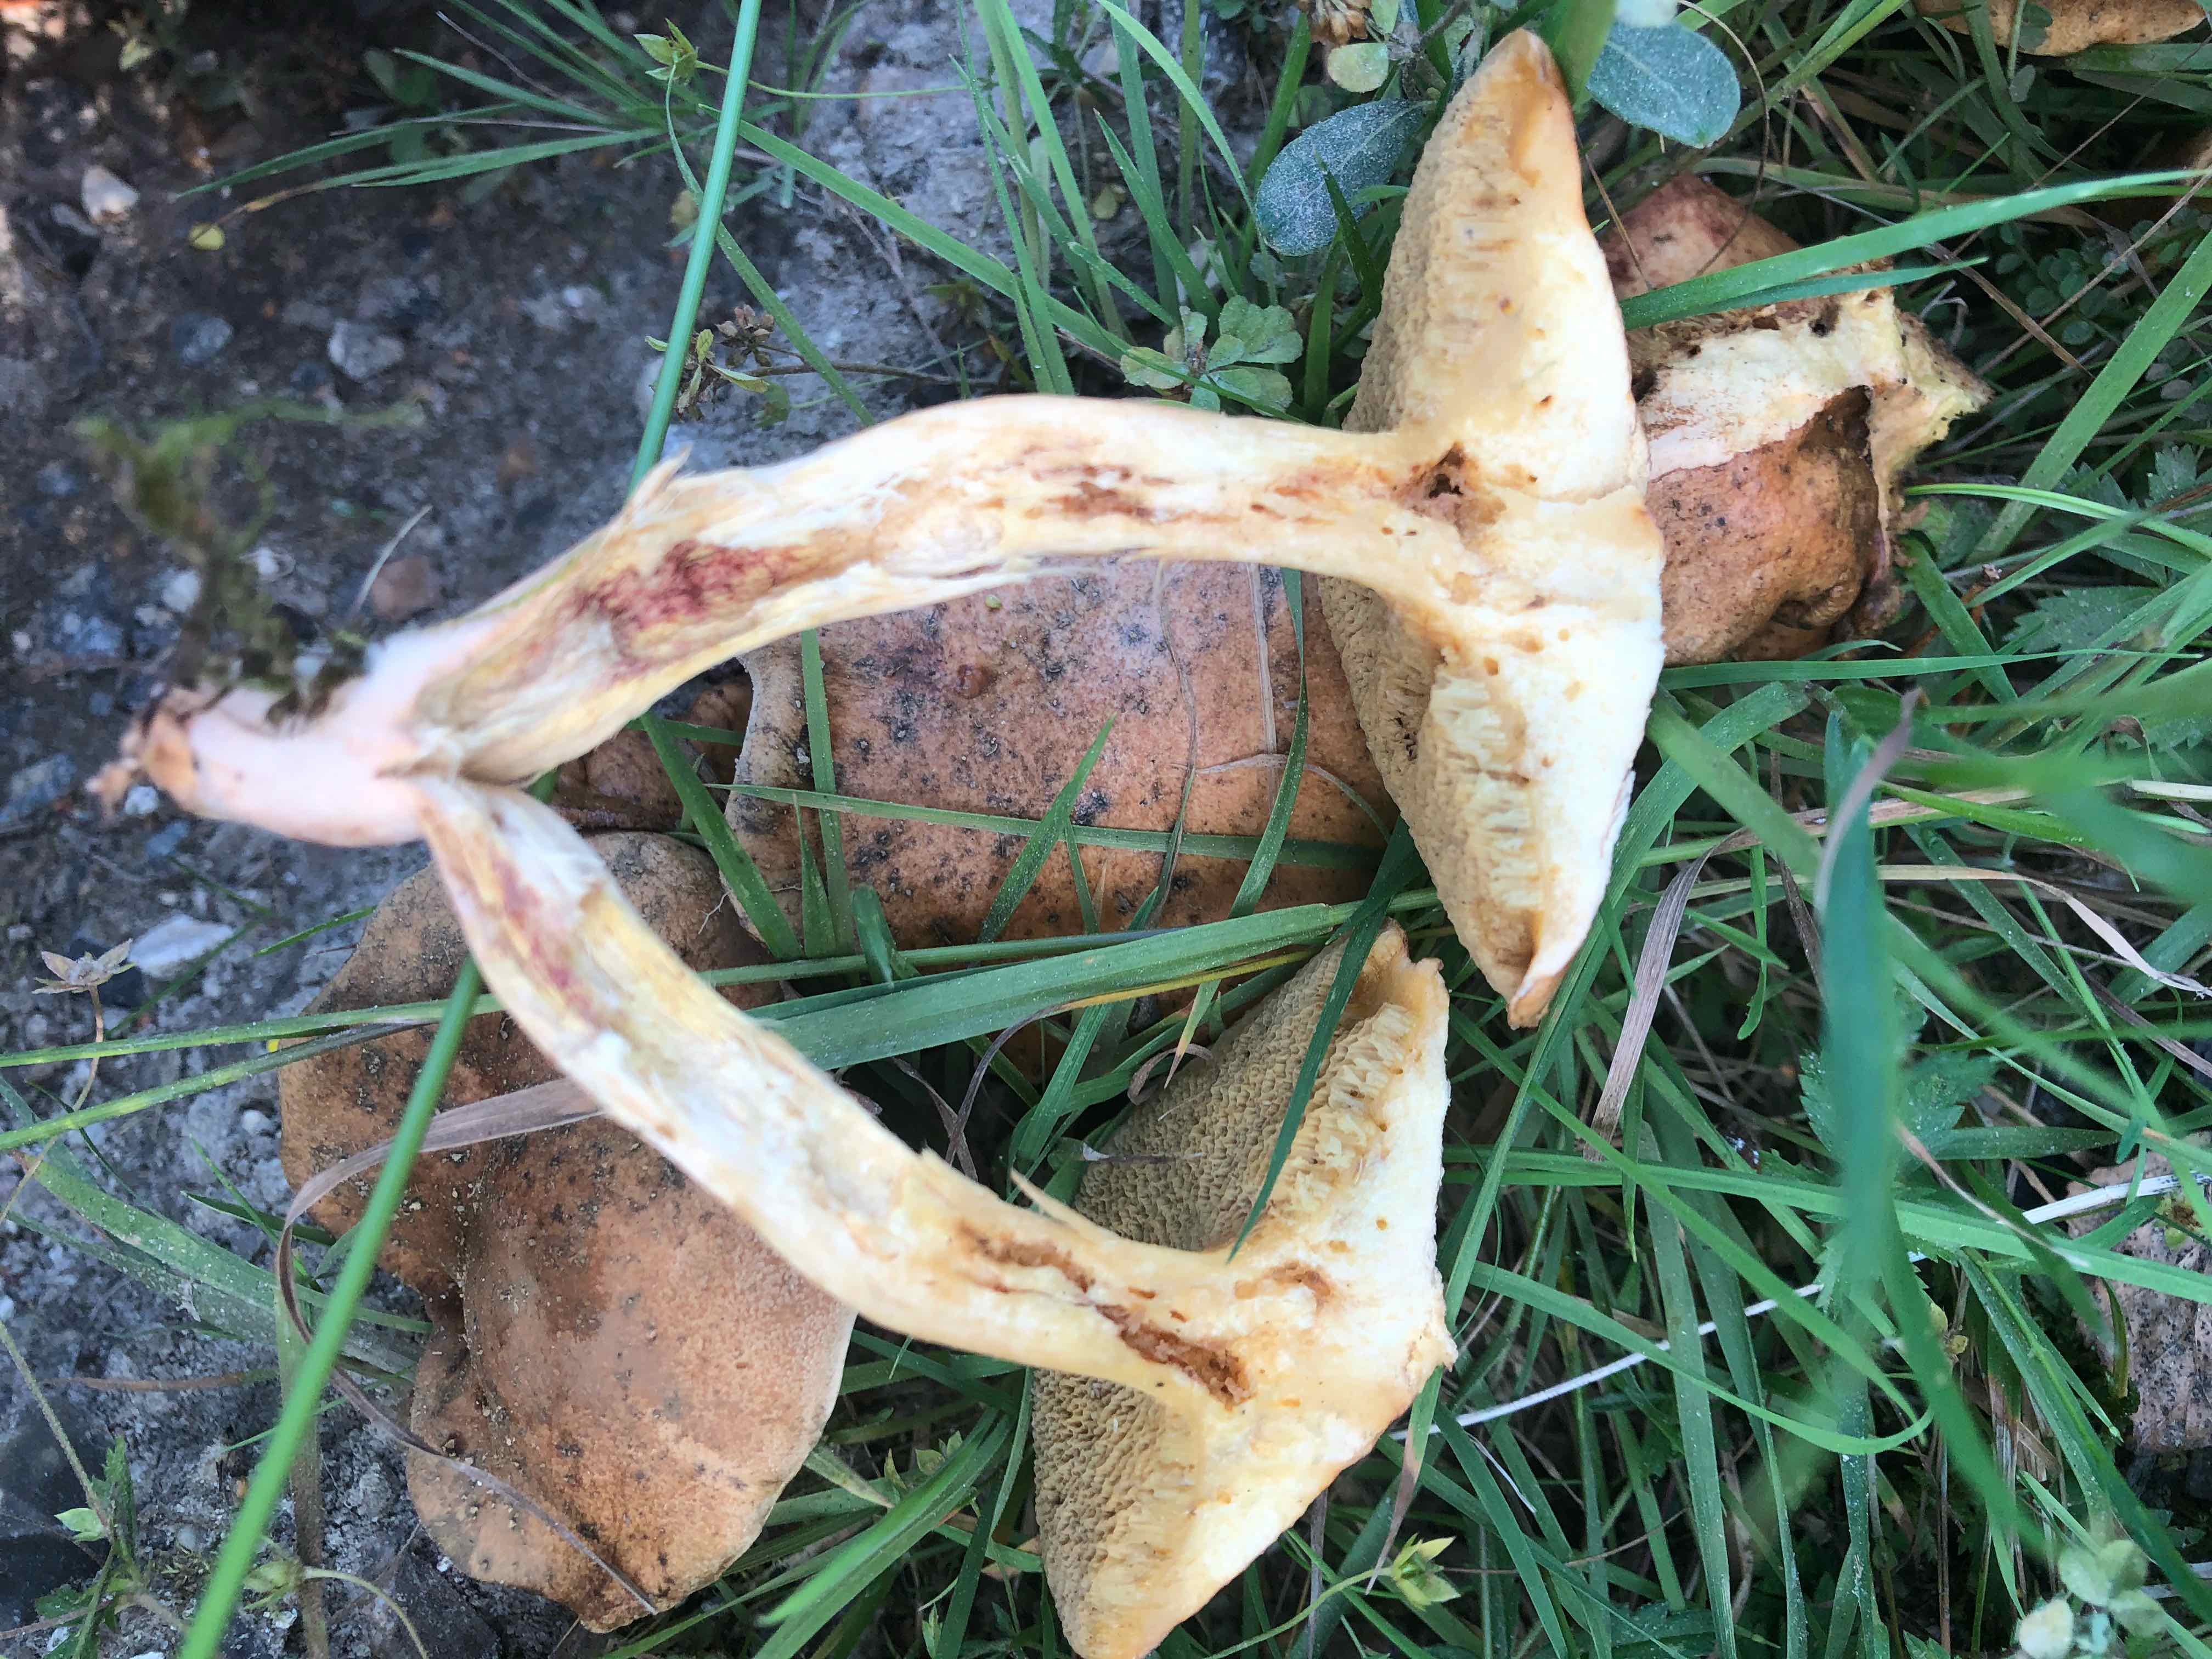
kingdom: Fungi
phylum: Basidiomycota
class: Agaricomycetes
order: Boletales
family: Suillaceae
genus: Suillus
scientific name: Suillus bovinus
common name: grovporet slimrørhat
